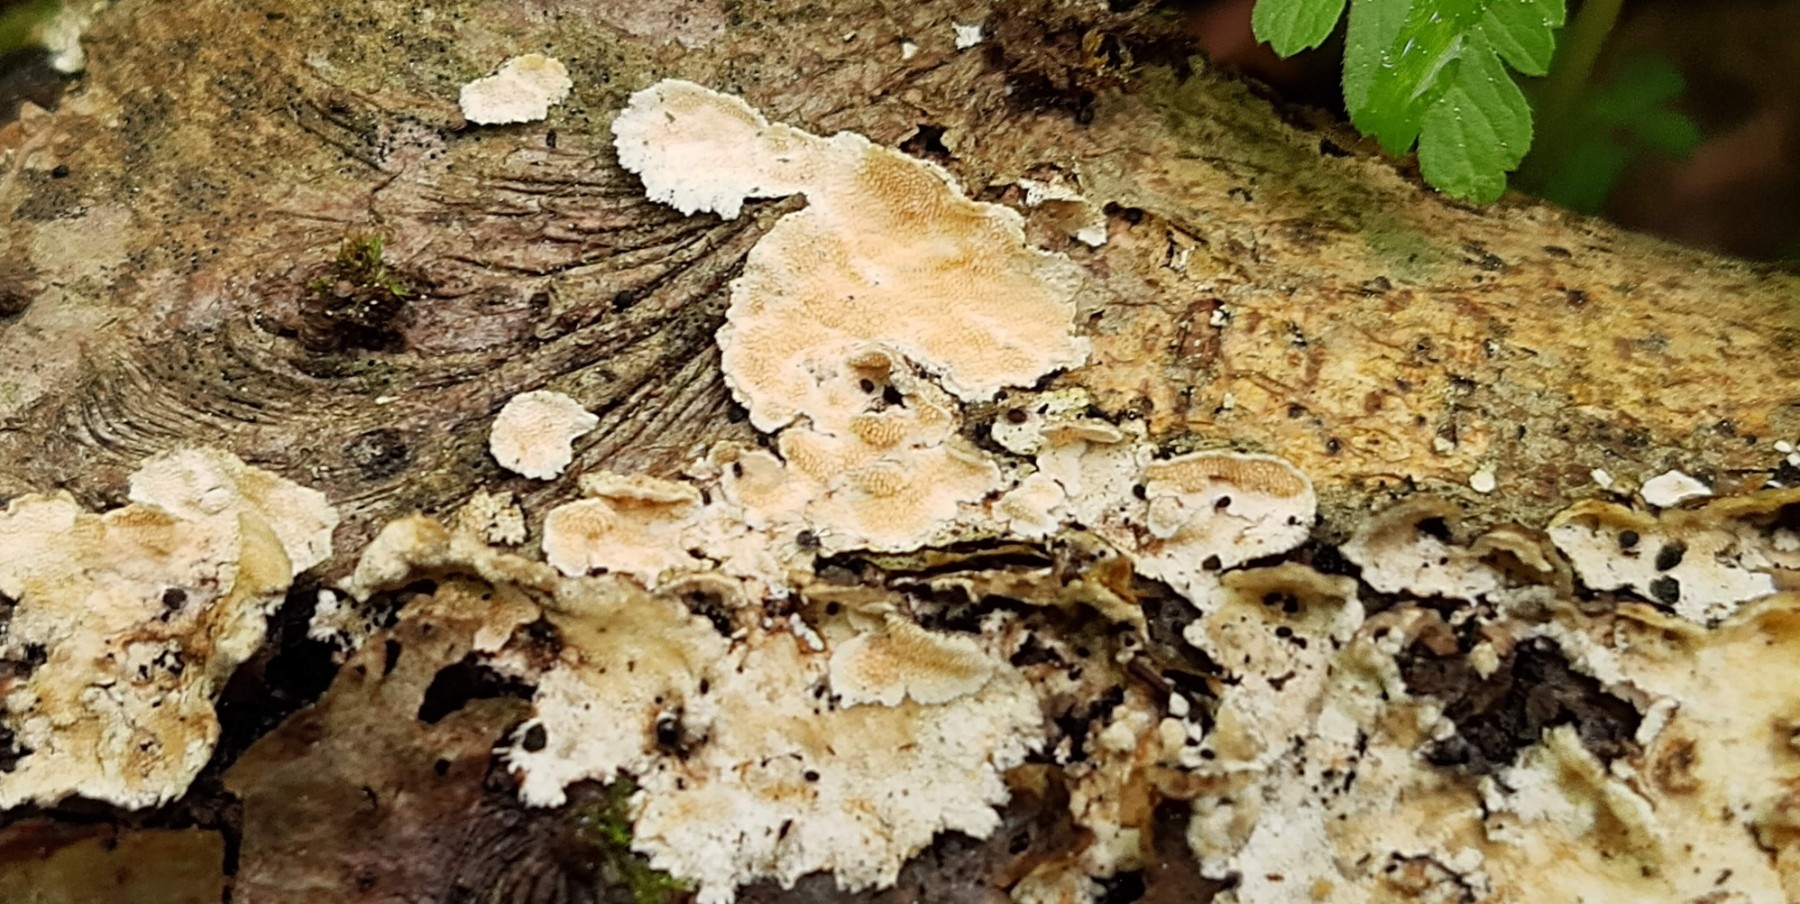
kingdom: Fungi
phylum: Basidiomycota
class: Agaricomycetes
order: Polyporales
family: Steccherinaceae
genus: Steccherinum
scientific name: Steccherinum ochraceum
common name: almindelig skønpig
